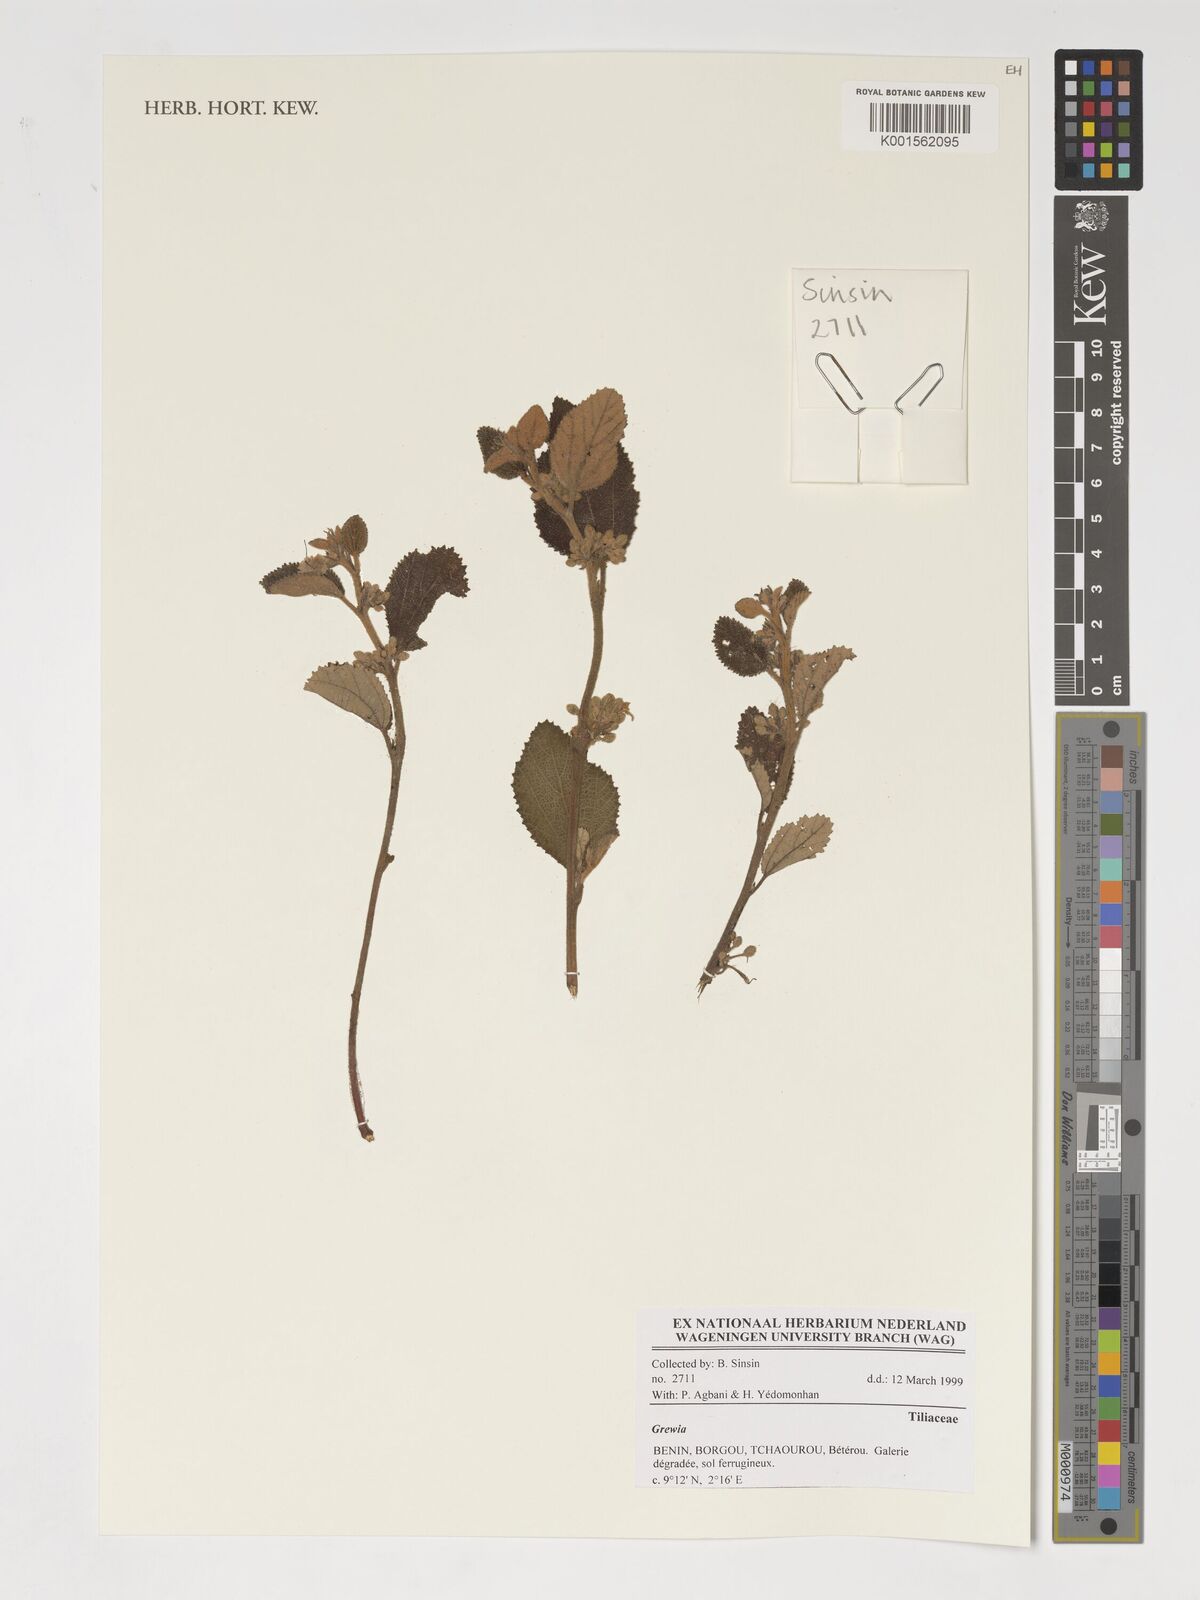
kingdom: Plantae
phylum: Tracheophyta
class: Magnoliopsida
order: Malvales
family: Malvaceae
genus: Grewia
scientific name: Grewia
